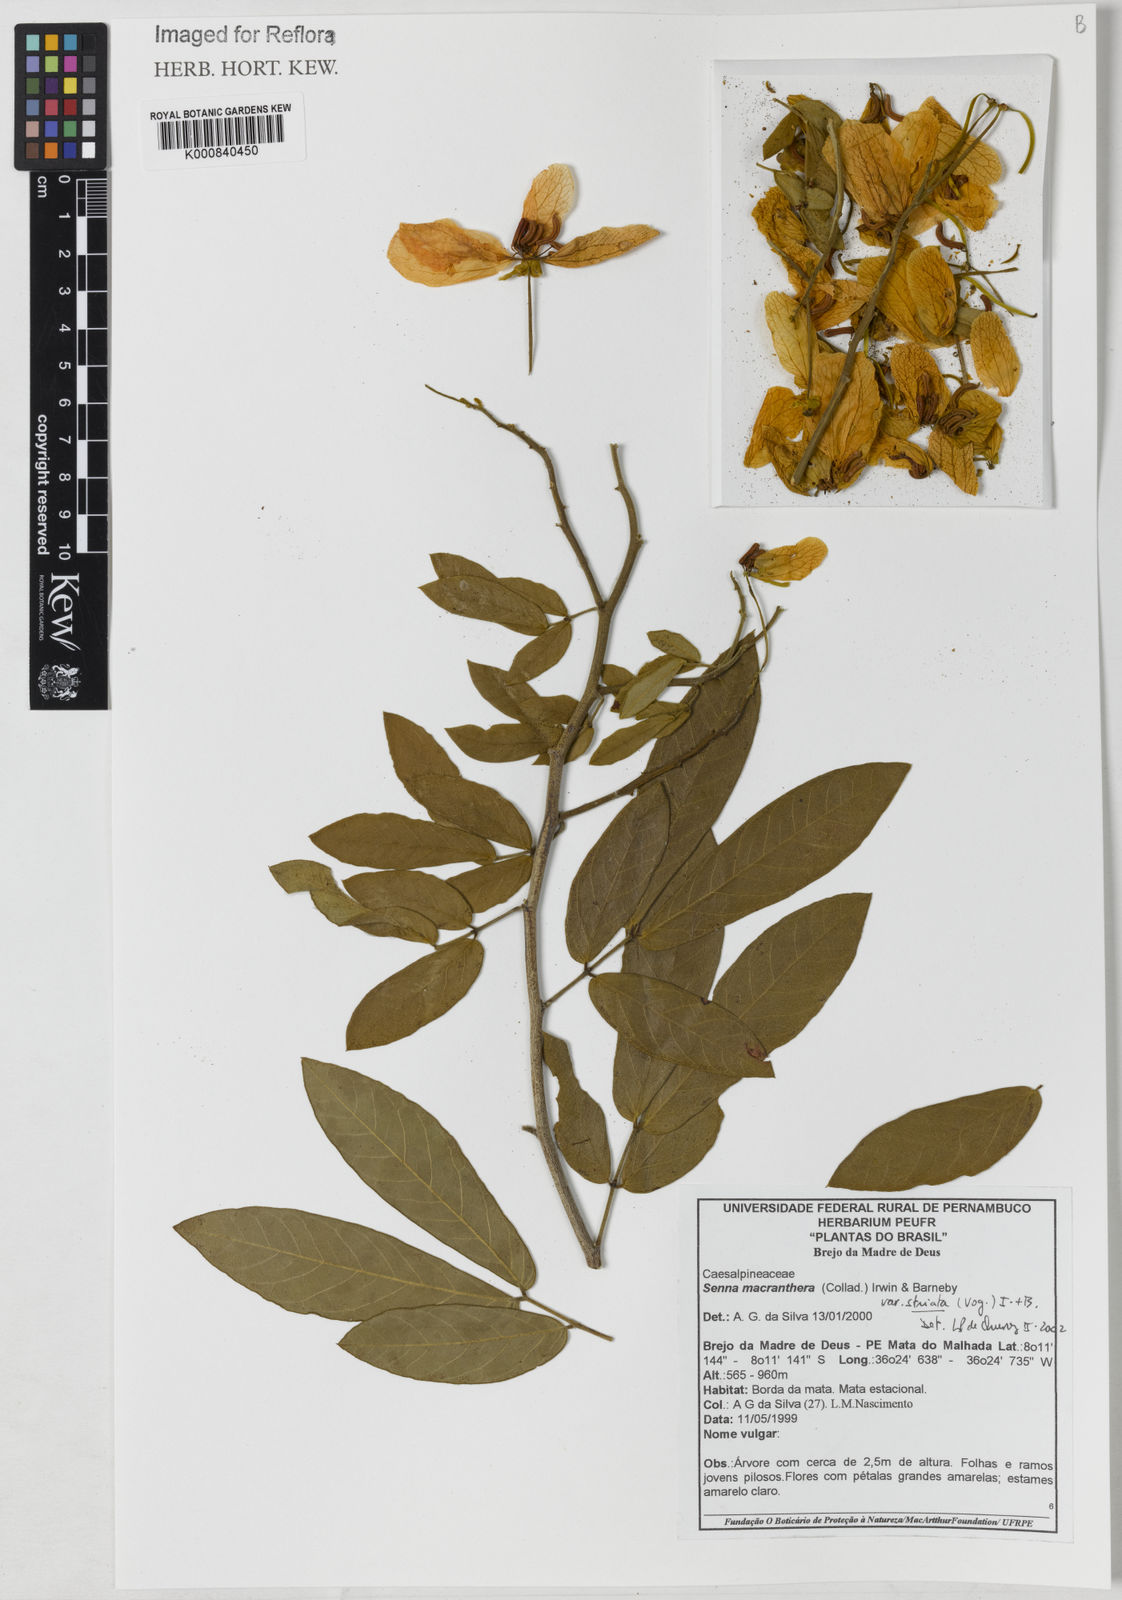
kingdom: Plantae
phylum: Tracheophyta
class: Magnoliopsida
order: Fabales
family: Fabaceae
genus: Senna
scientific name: Senna macranthera
